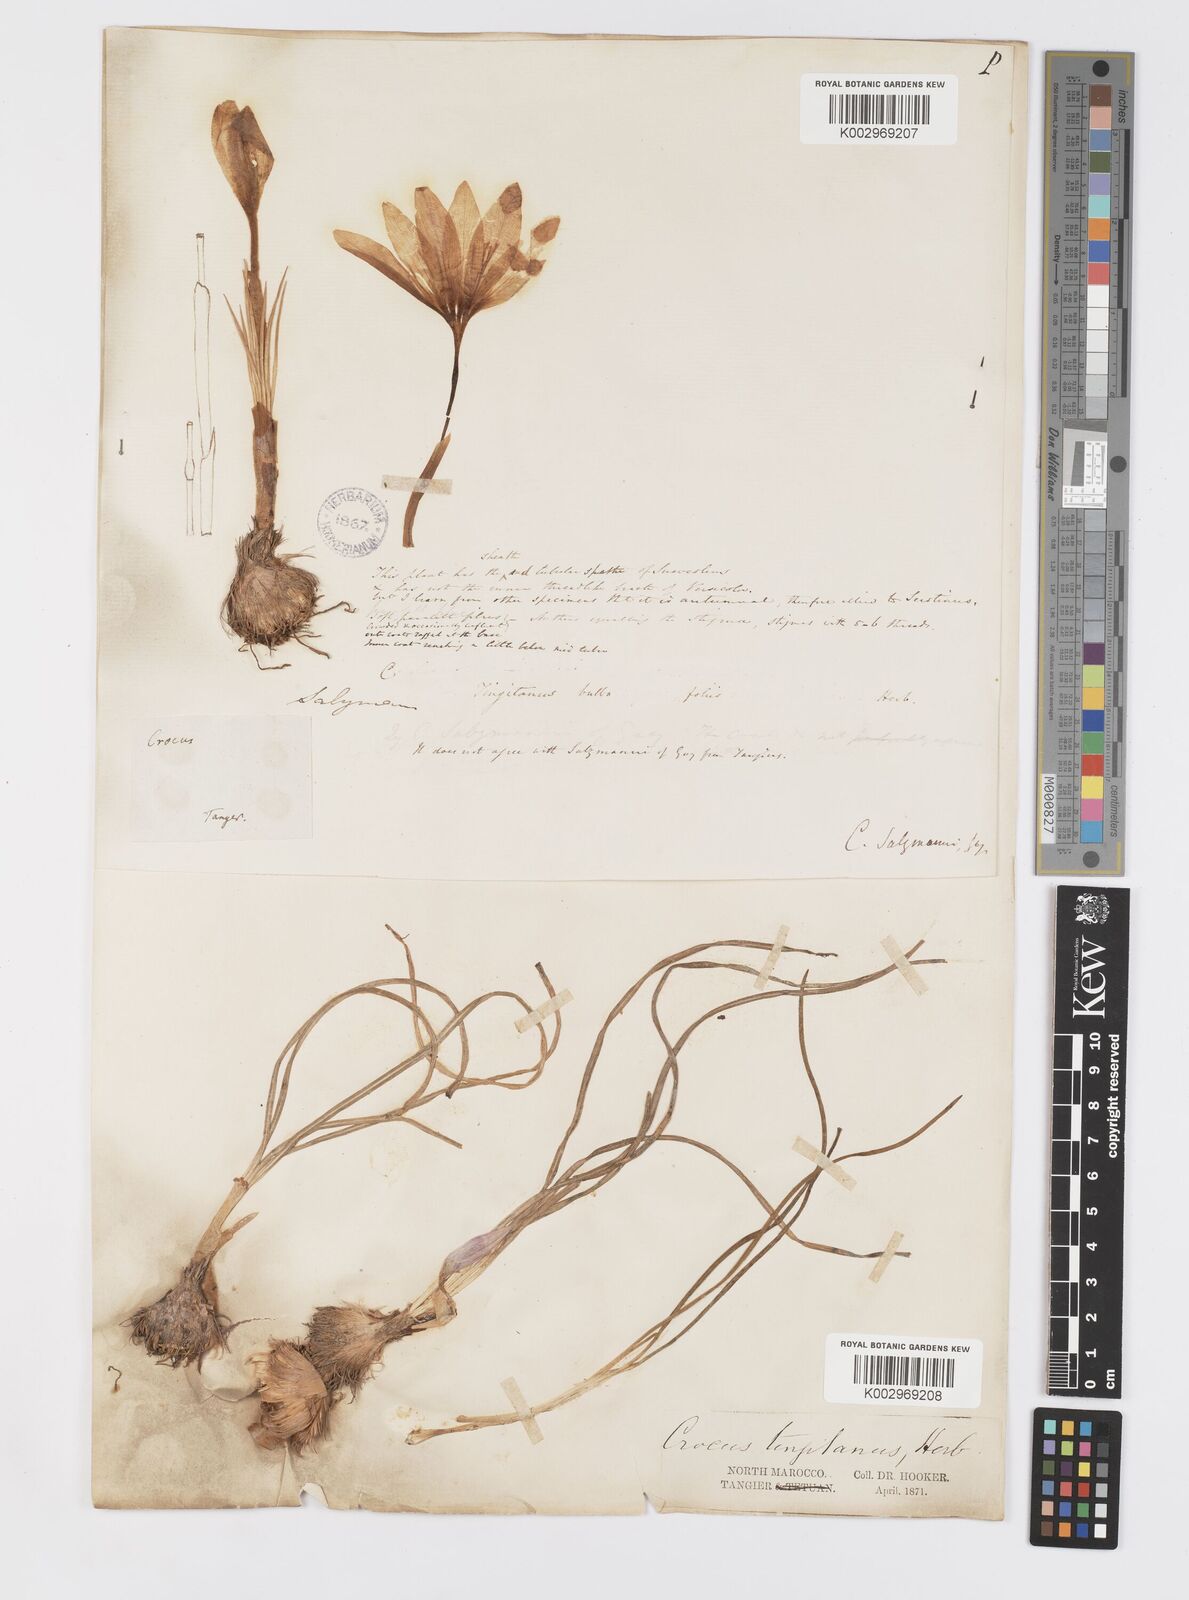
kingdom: Plantae
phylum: Tracheophyta
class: Liliopsida
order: Asparagales
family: Iridaceae
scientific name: Iridaceae
